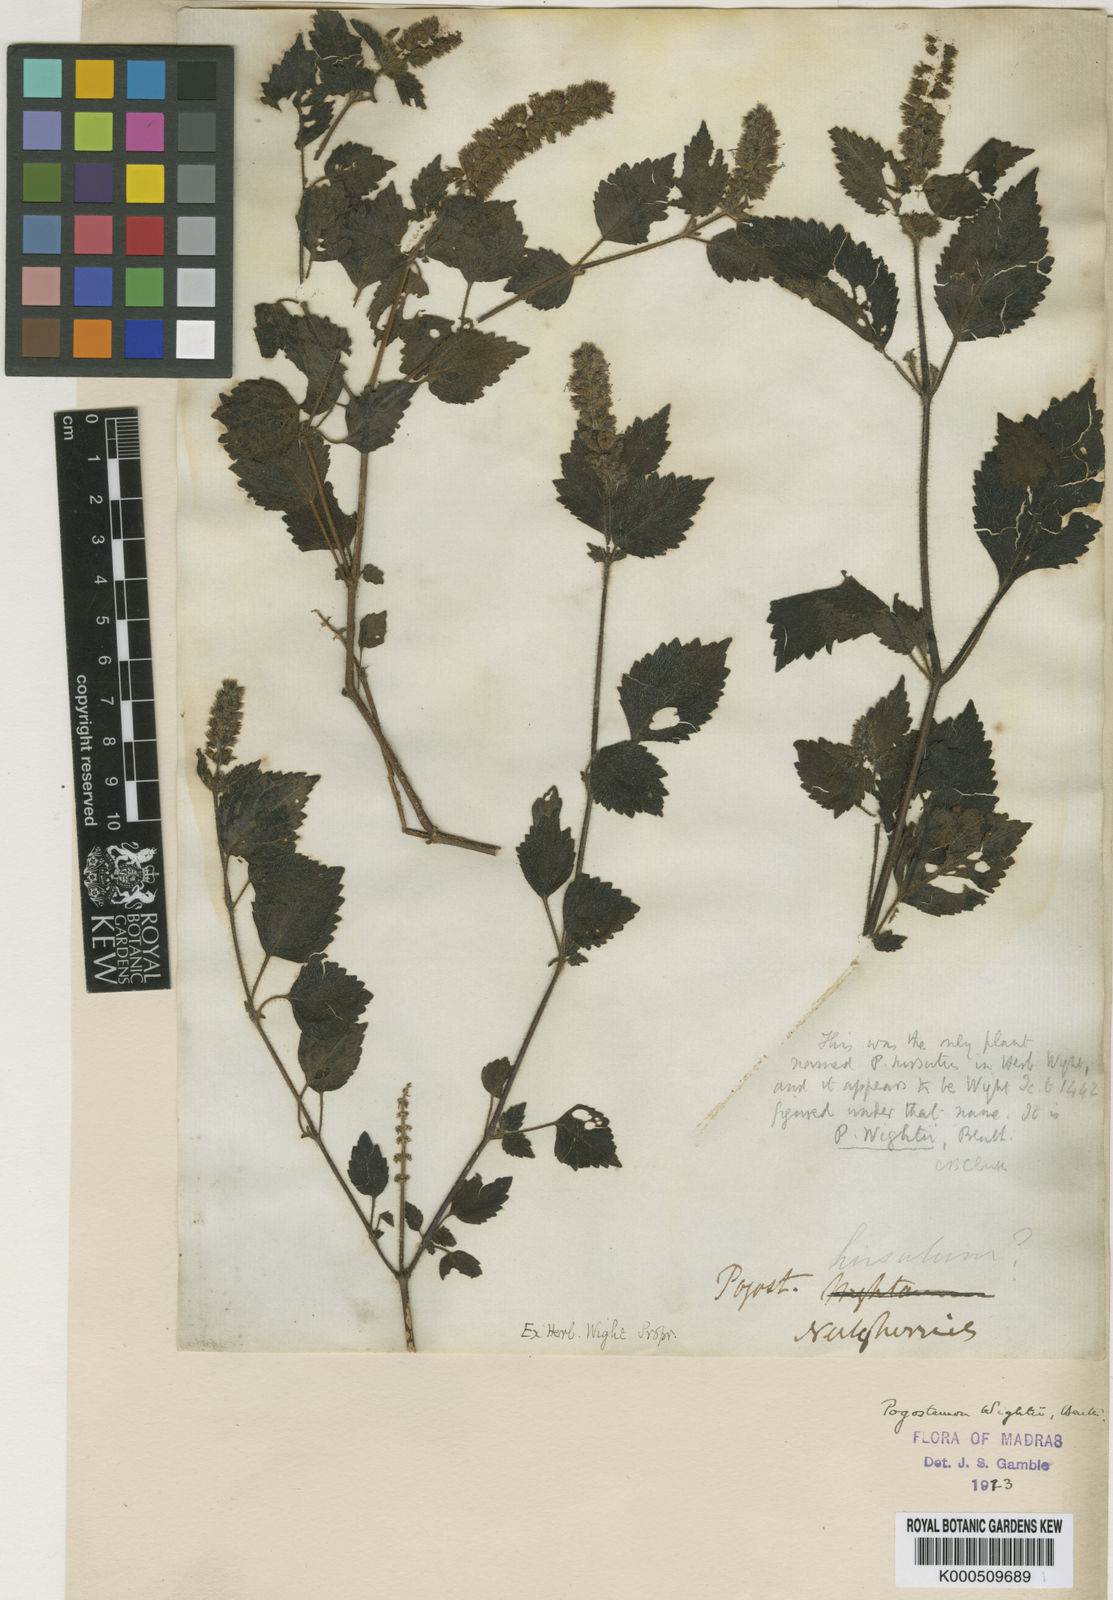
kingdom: Plantae
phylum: Tracheophyta
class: Magnoliopsida
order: Lamiales
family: Lamiaceae
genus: Pogostemon
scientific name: Pogostemon wightii
